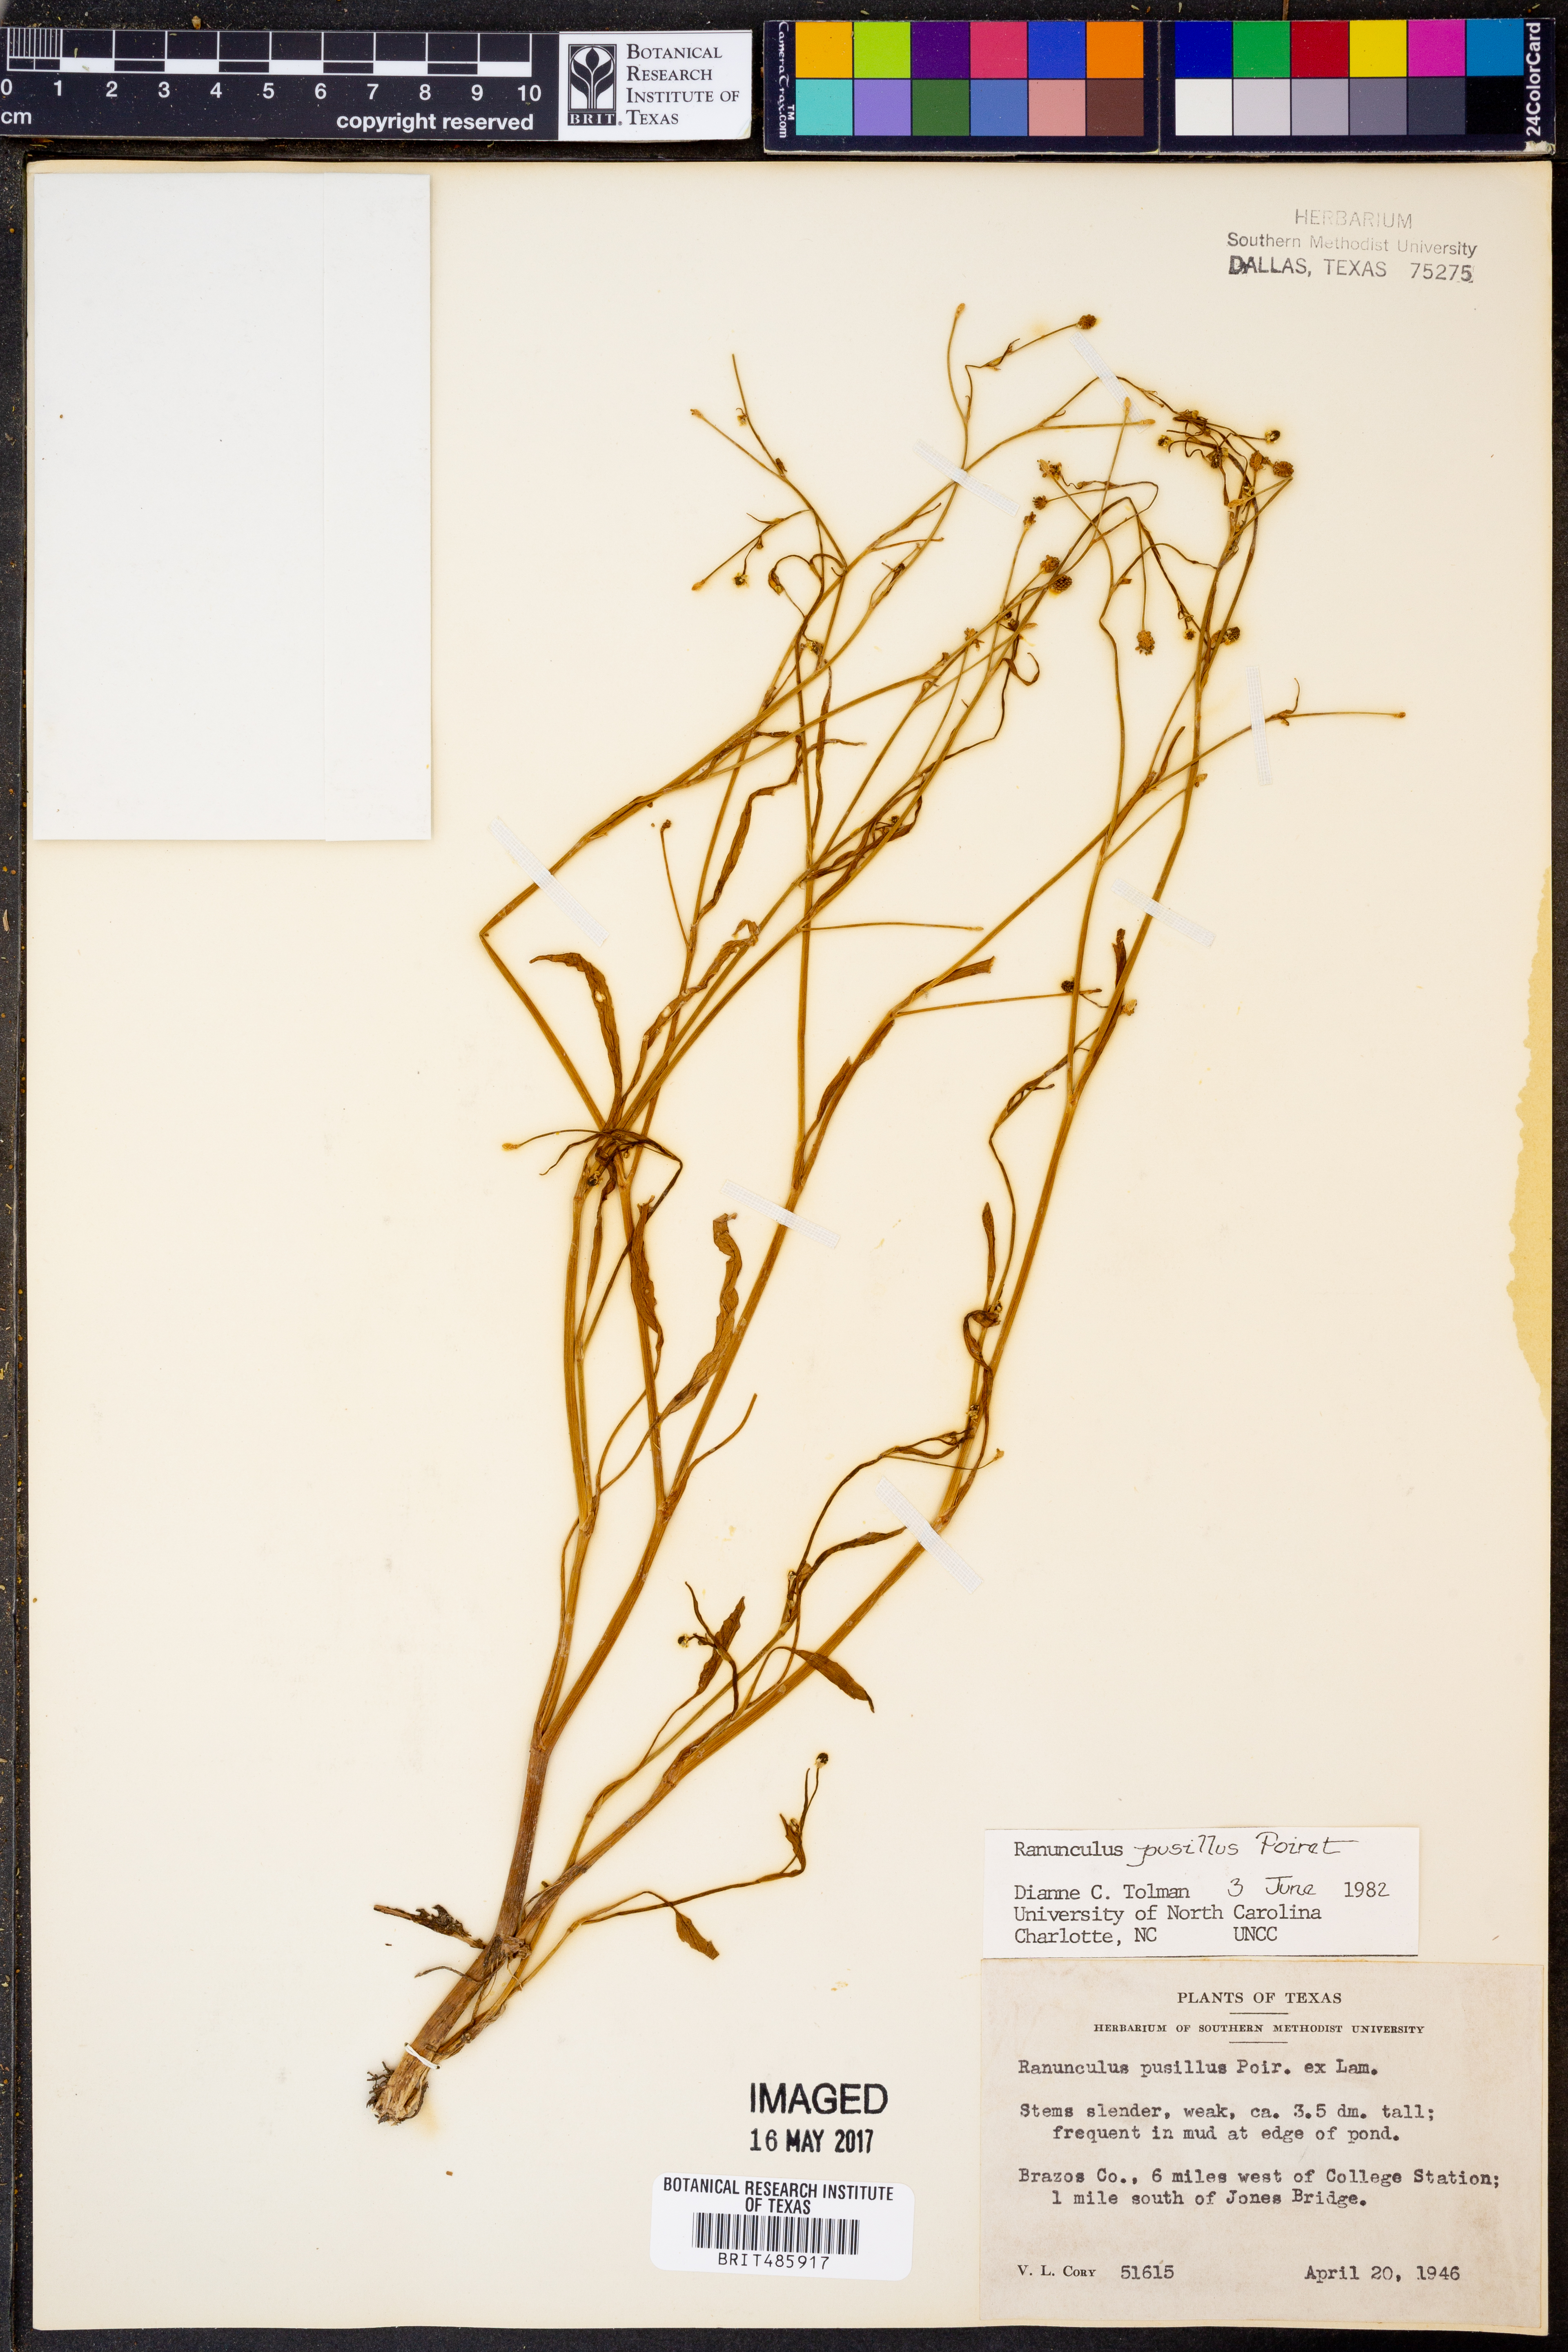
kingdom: Plantae
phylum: Tracheophyta
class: Magnoliopsida
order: Ranunculales
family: Ranunculaceae
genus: Ranunculus
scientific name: Ranunculus pusillus
